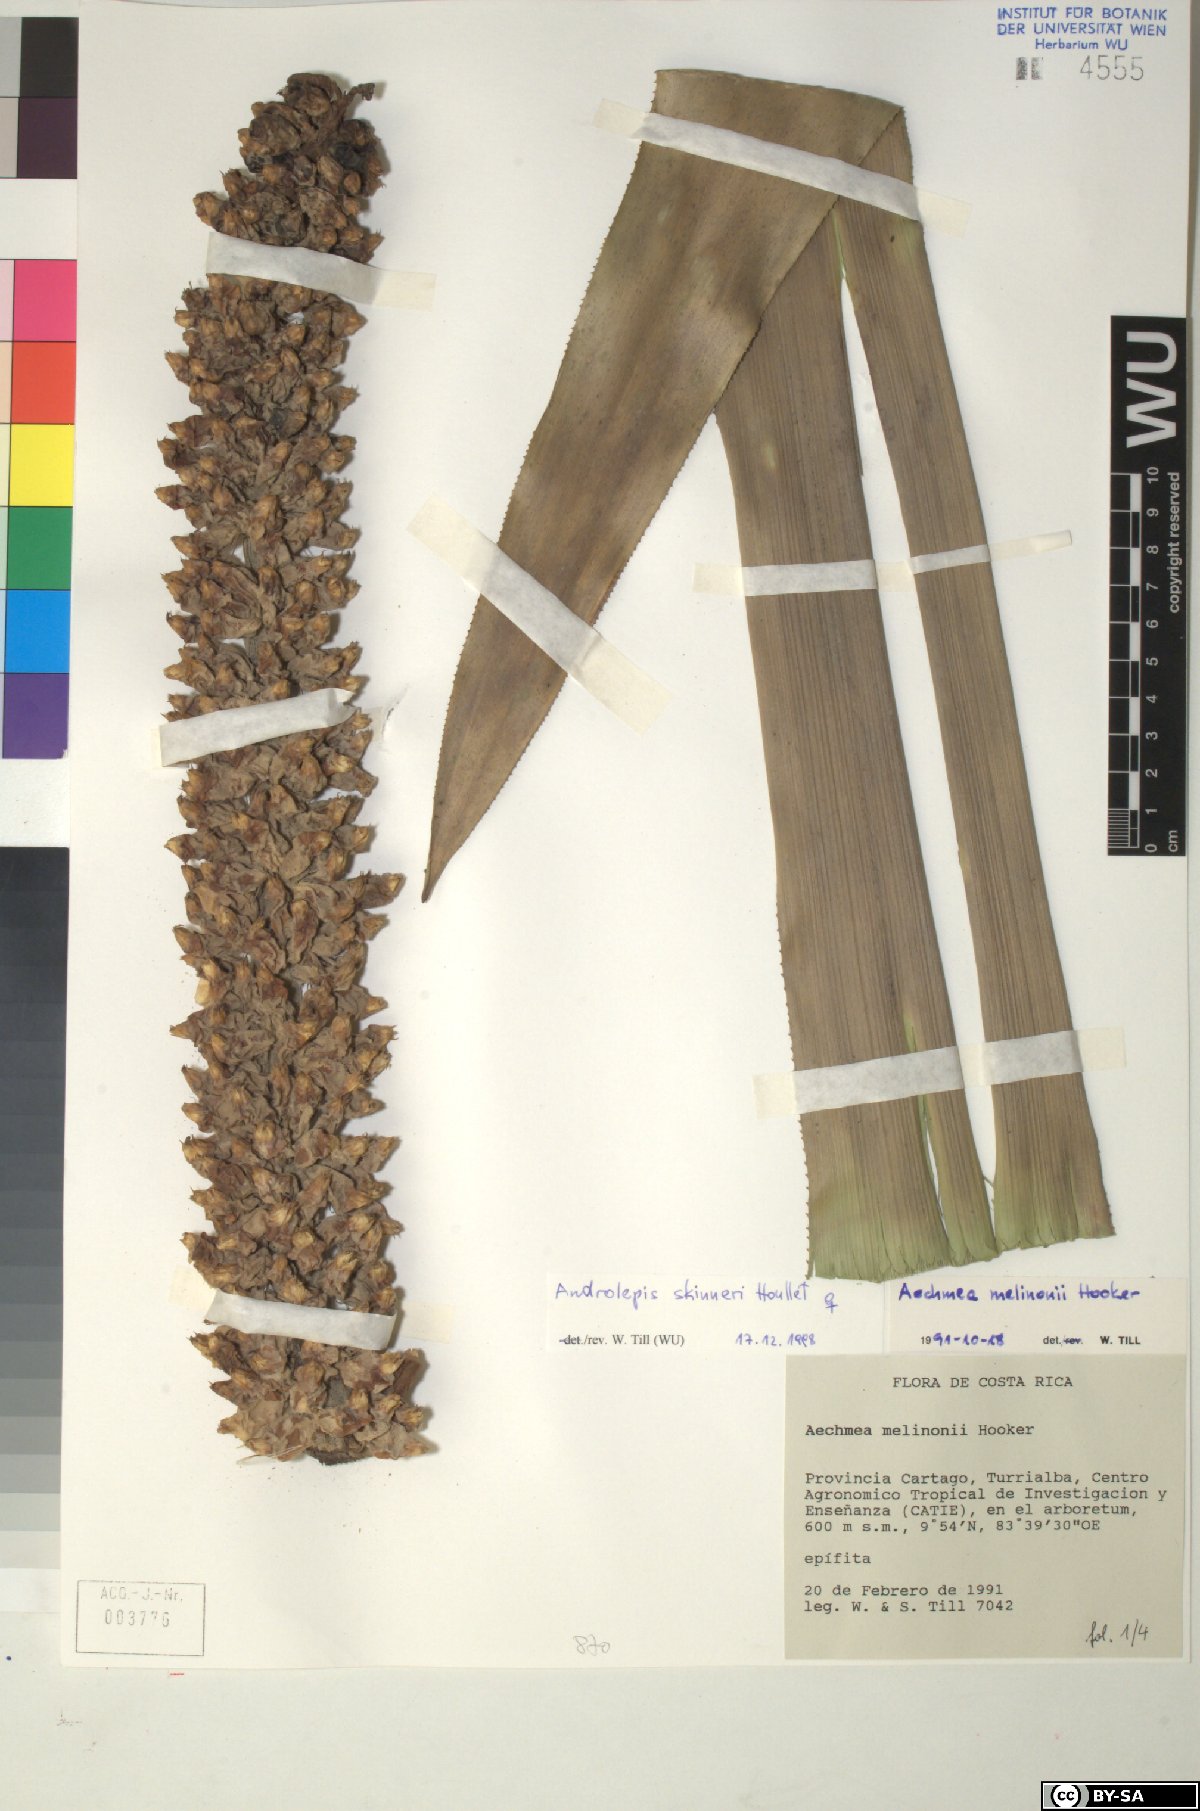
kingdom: Plantae
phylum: Tracheophyta
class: Liliopsida
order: Poales
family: Bromeliaceae
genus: Androlepis
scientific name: Androlepis skinneri
